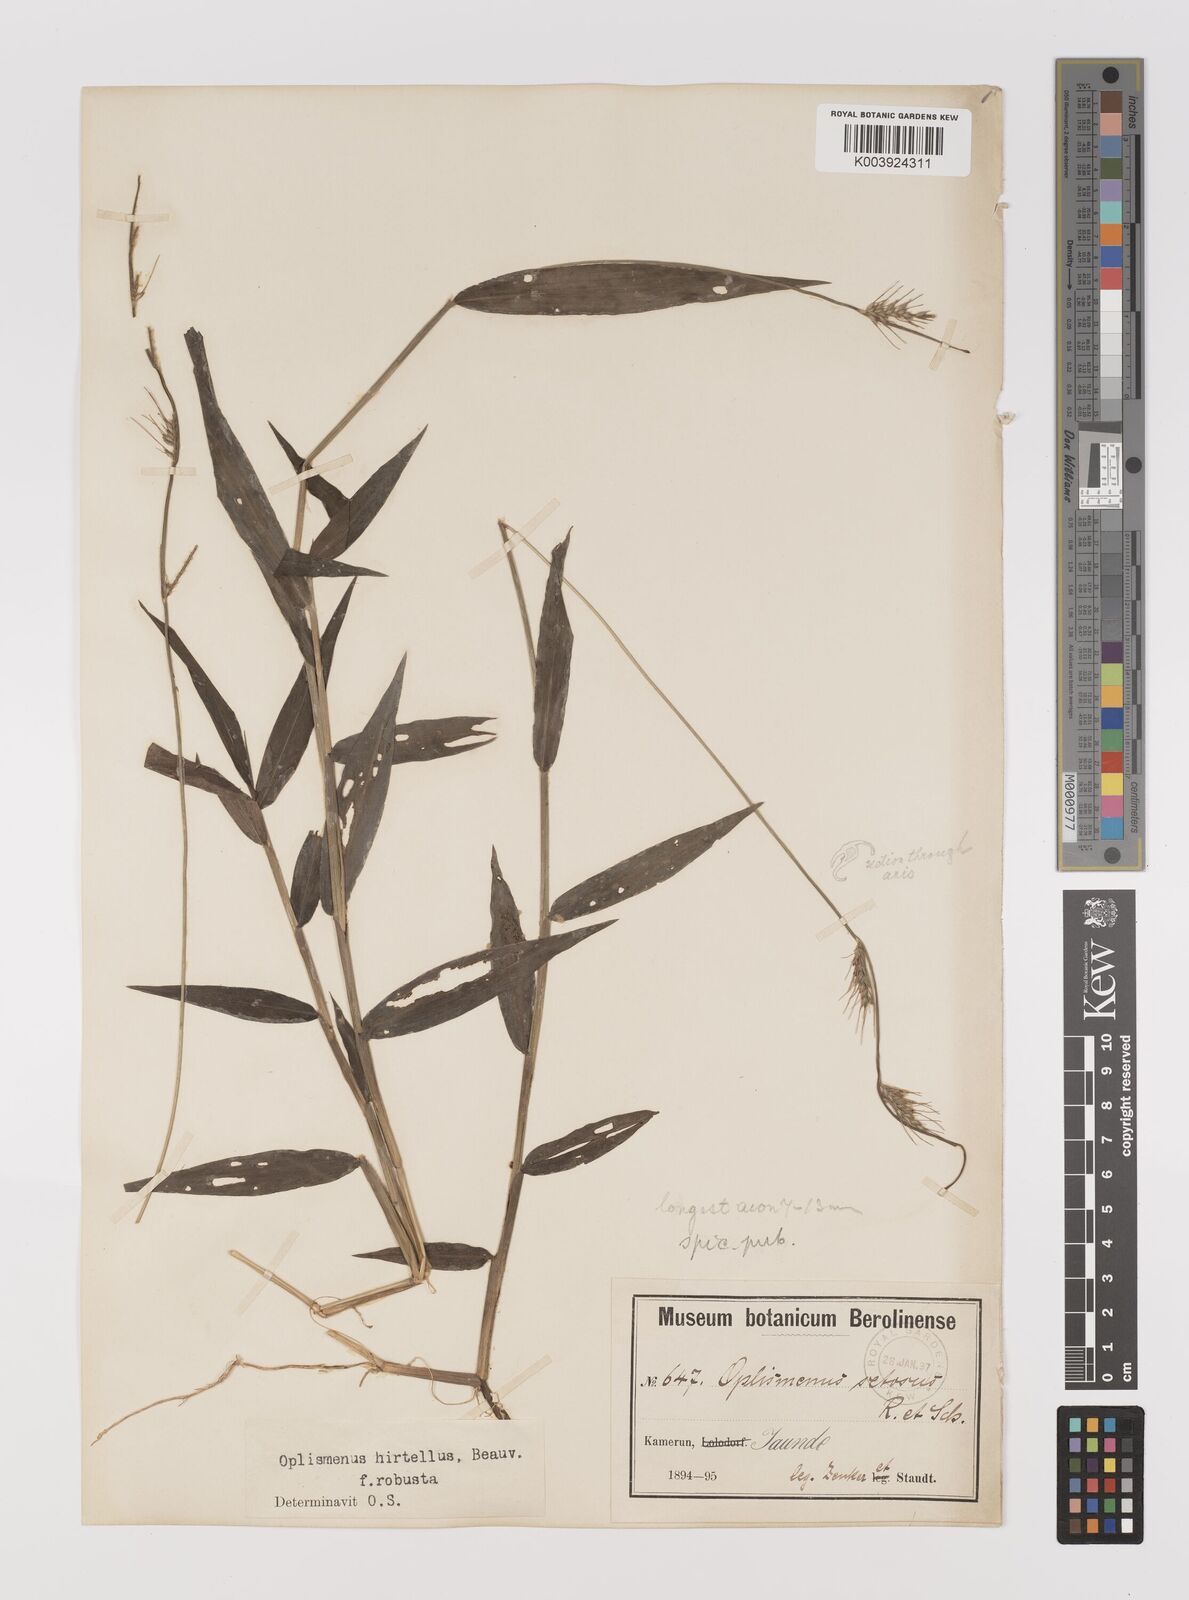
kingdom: Plantae
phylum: Tracheophyta
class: Liliopsida
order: Poales
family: Poaceae
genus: Oplismenus
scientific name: Oplismenus hirtellus
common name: Basketgrass
